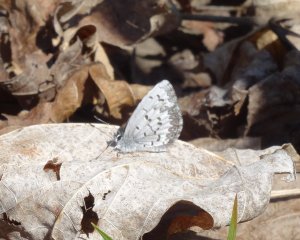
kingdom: Animalia
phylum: Arthropoda
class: Insecta
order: Lepidoptera
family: Lycaenidae
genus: Celastrina
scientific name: Celastrina lucia
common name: Northern Spring Azure
